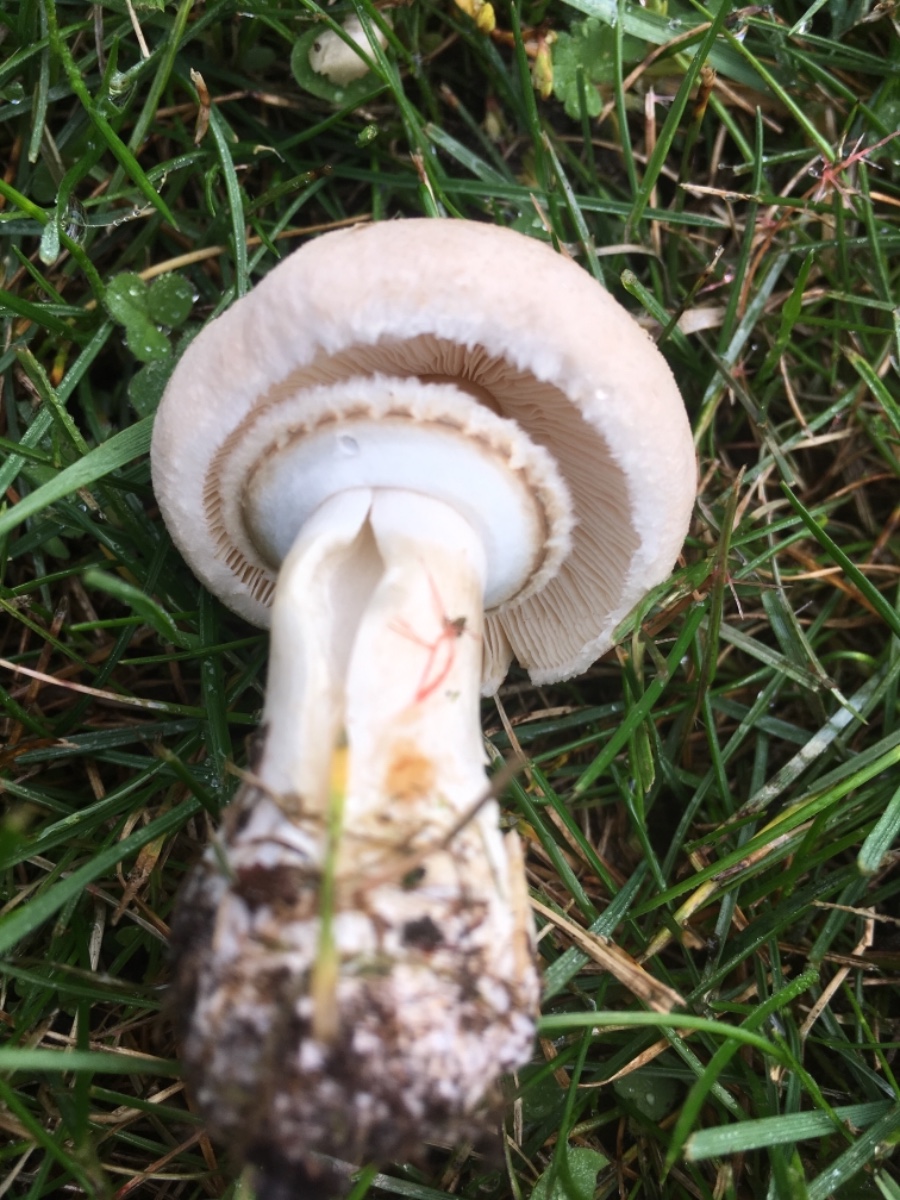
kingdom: Fungi
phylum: Basidiomycota
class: Agaricomycetes
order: Agaricales
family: Agaricaceae
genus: Leucoagaricus
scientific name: Leucoagaricus leucothites
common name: rosabladet silkehat
